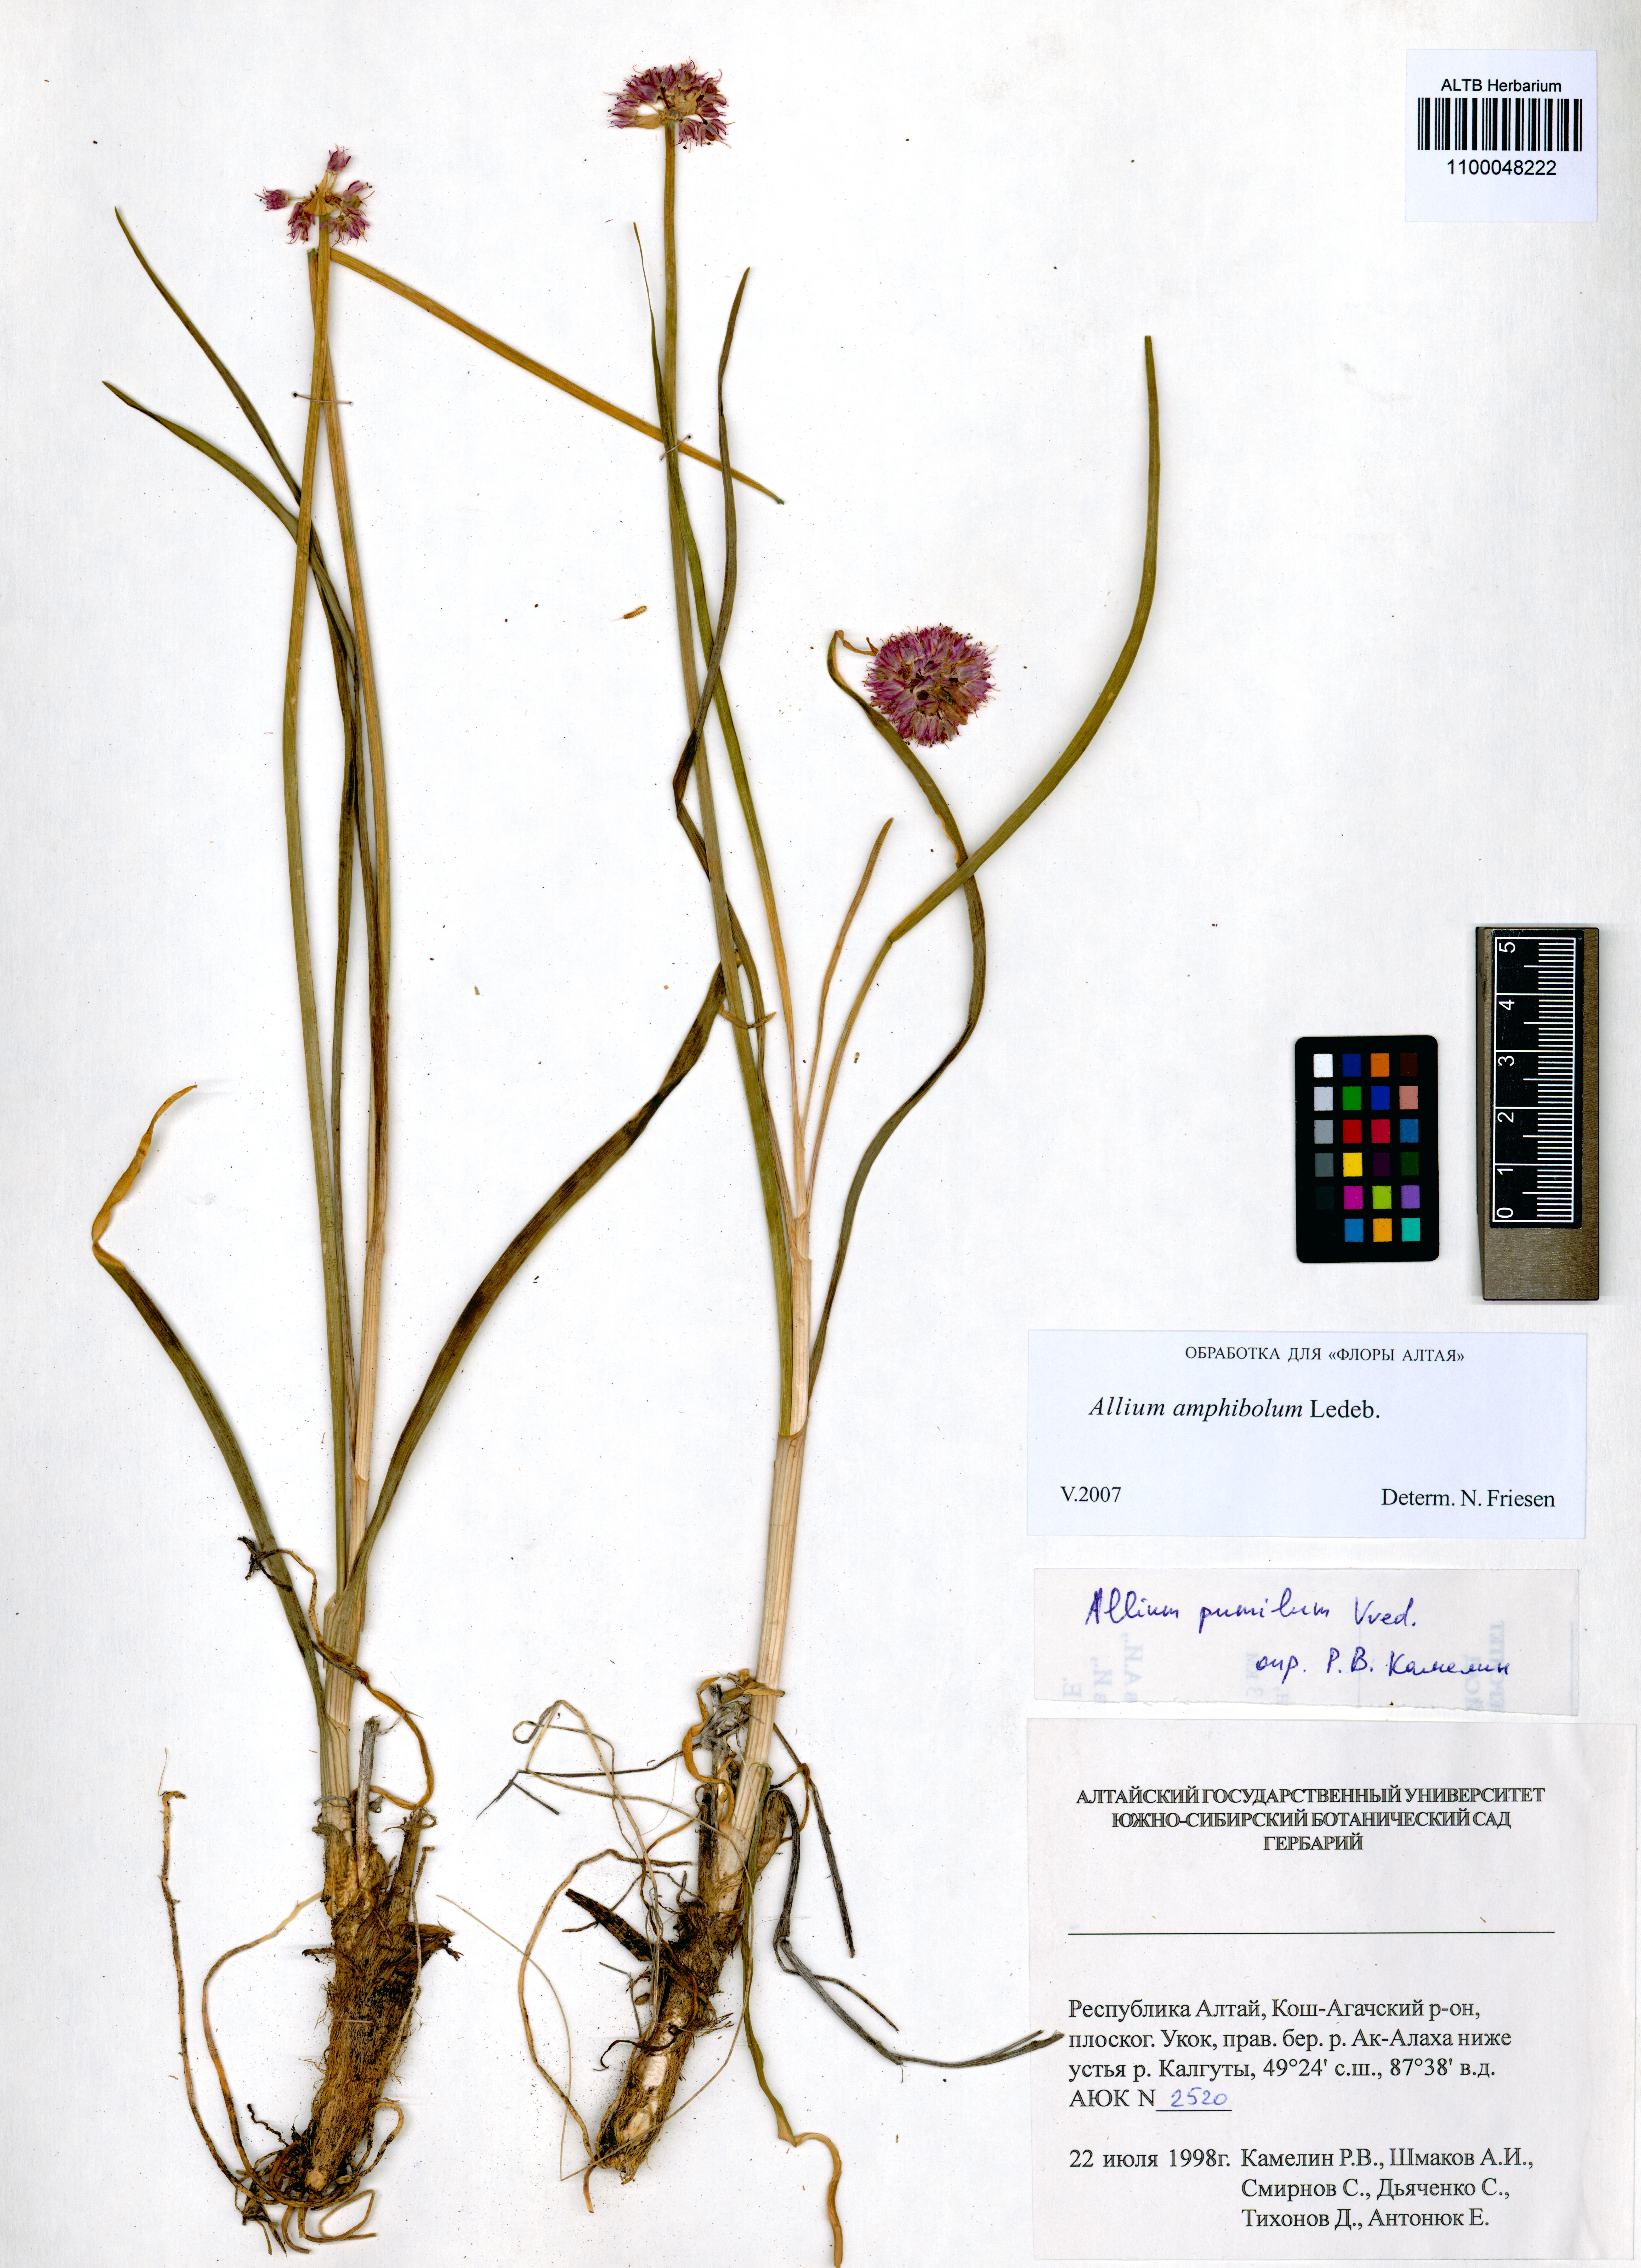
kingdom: Plantae
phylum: Tracheophyta
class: Liliopsida
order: Asparagales
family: Amaryllidaceae
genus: Allium
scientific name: Allium amphibolum
